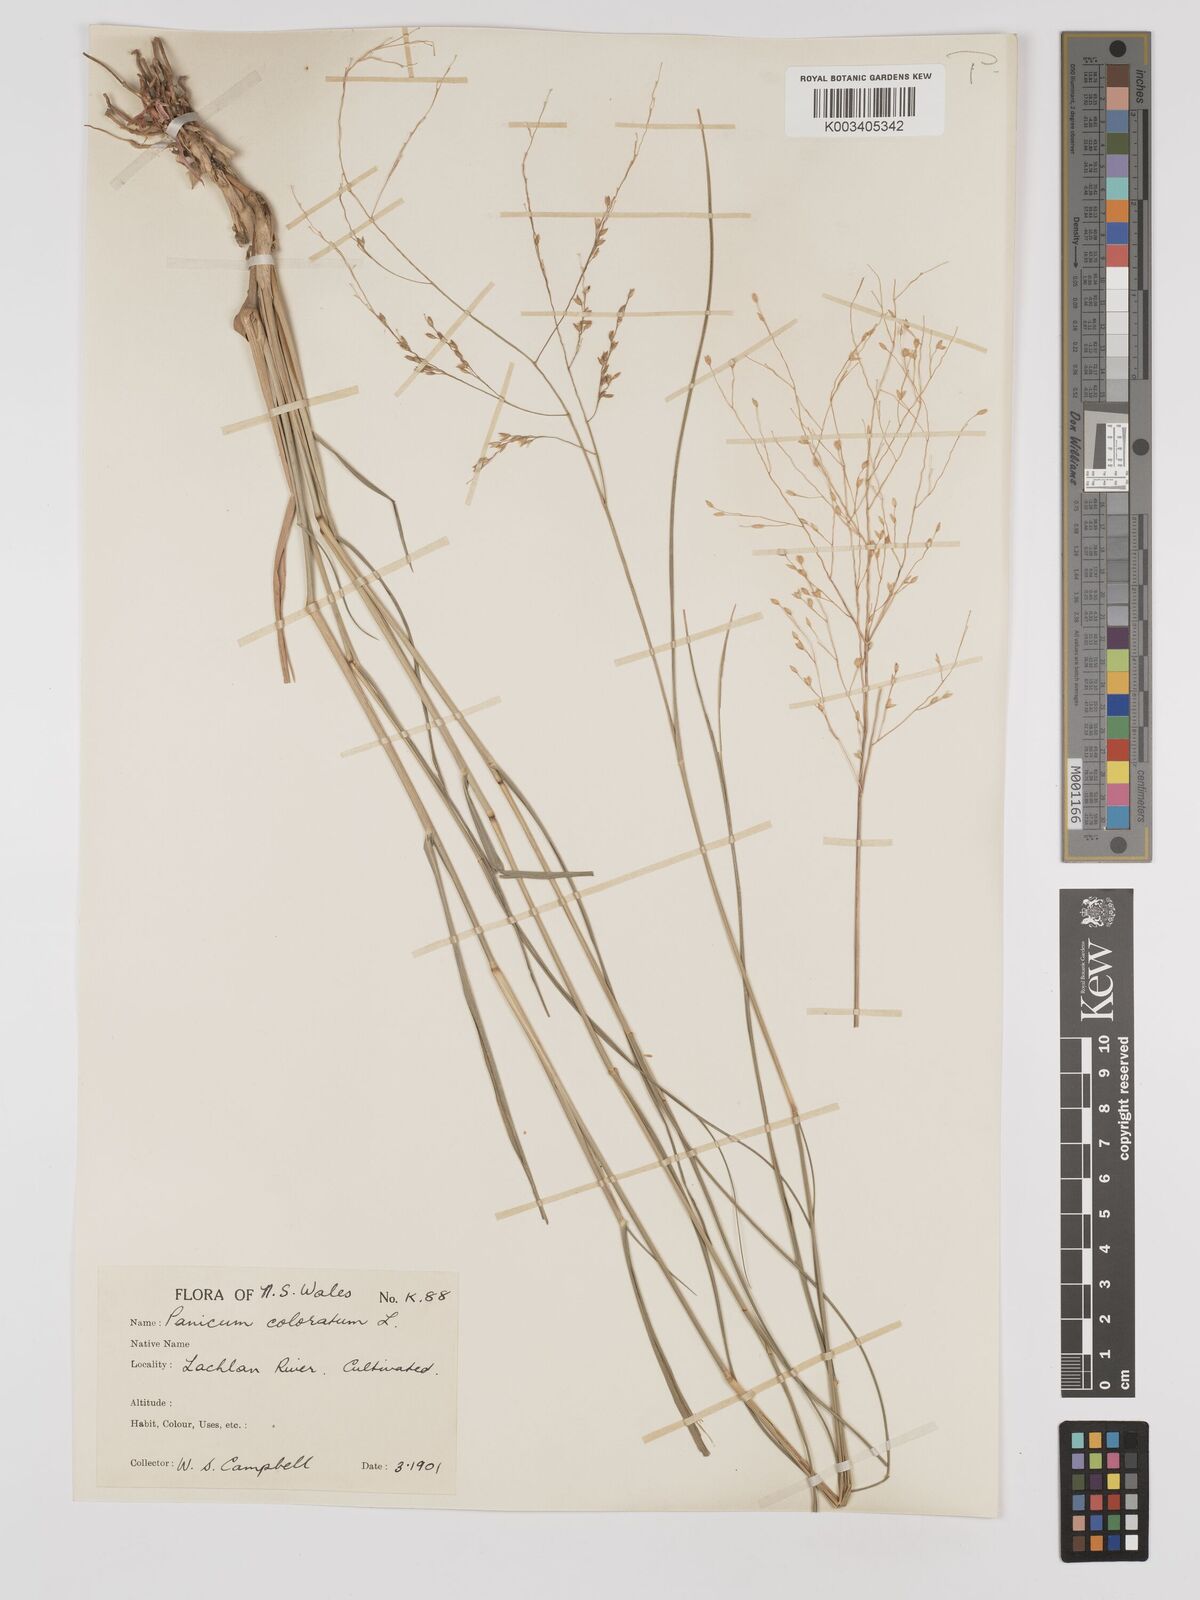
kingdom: Plantae
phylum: Tracheophyta
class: Liliopsida
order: Poales
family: Poaceae
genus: Panicum
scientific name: Panicum coloratum
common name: Kleingrass
